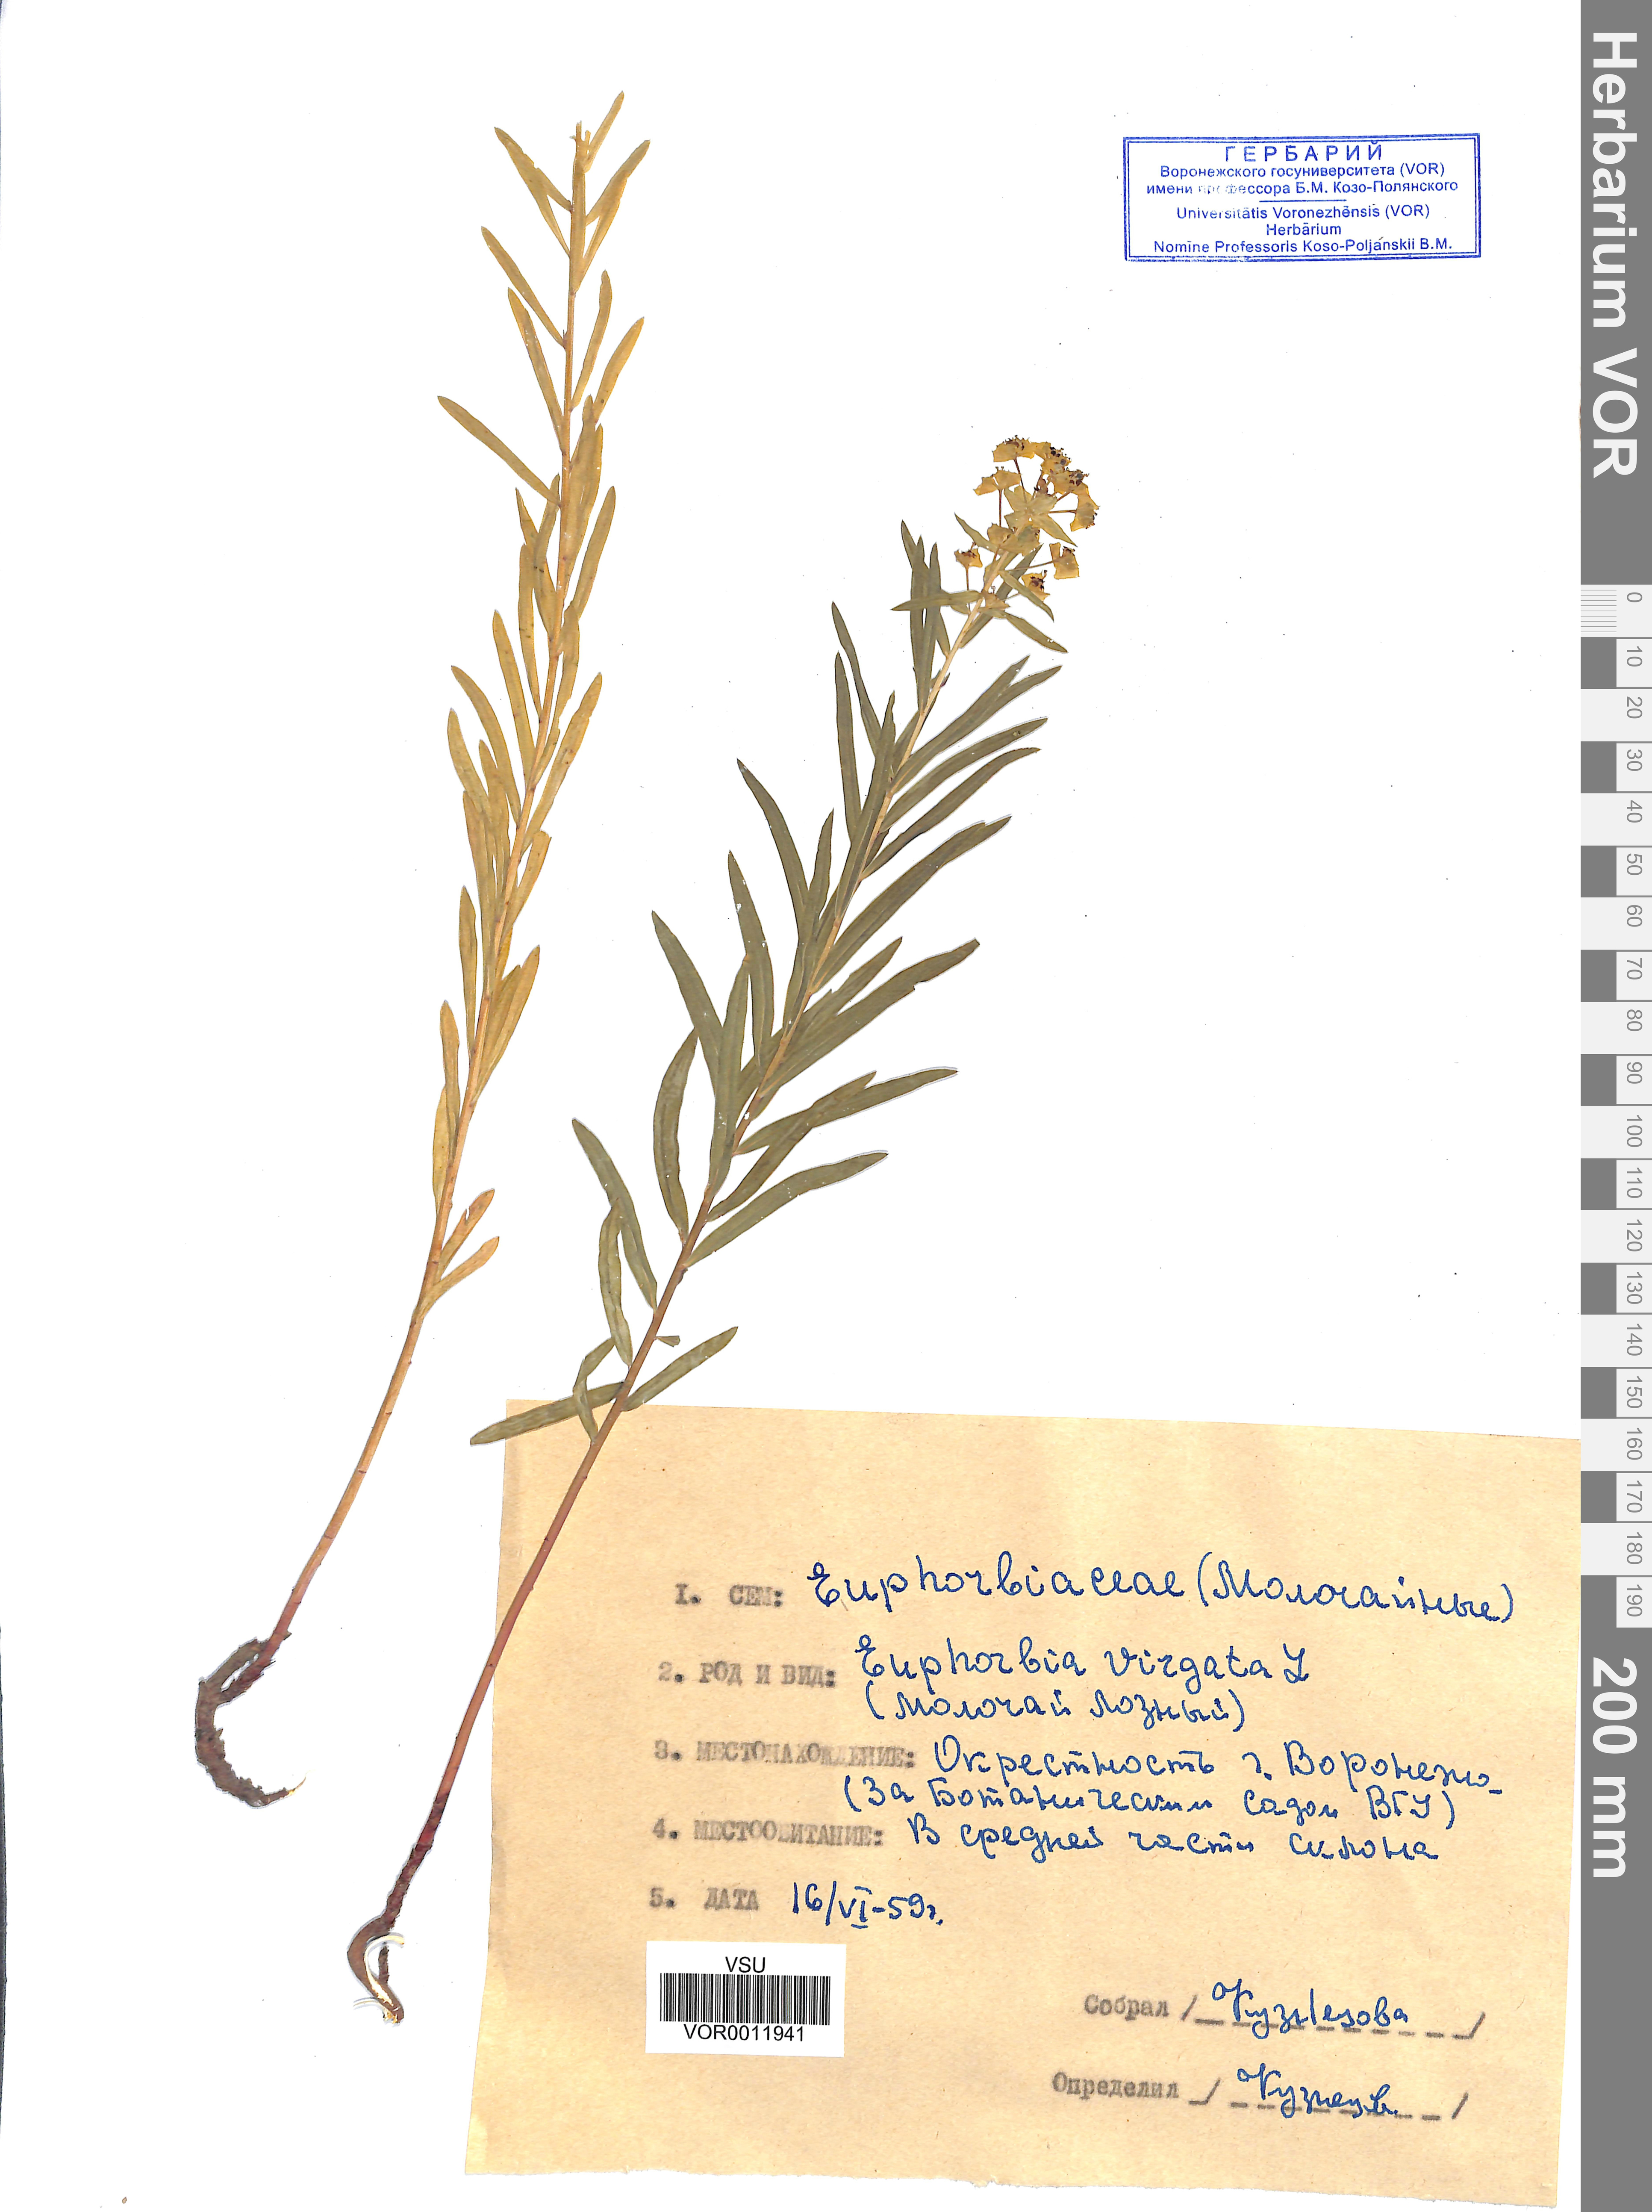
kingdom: Plantae
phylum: Tracheophyta
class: Magnoliopsida
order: Malpighiales
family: Euphorbiaceae
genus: Euphorbia
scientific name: Euphorbia virgata
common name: Leafy spurge
